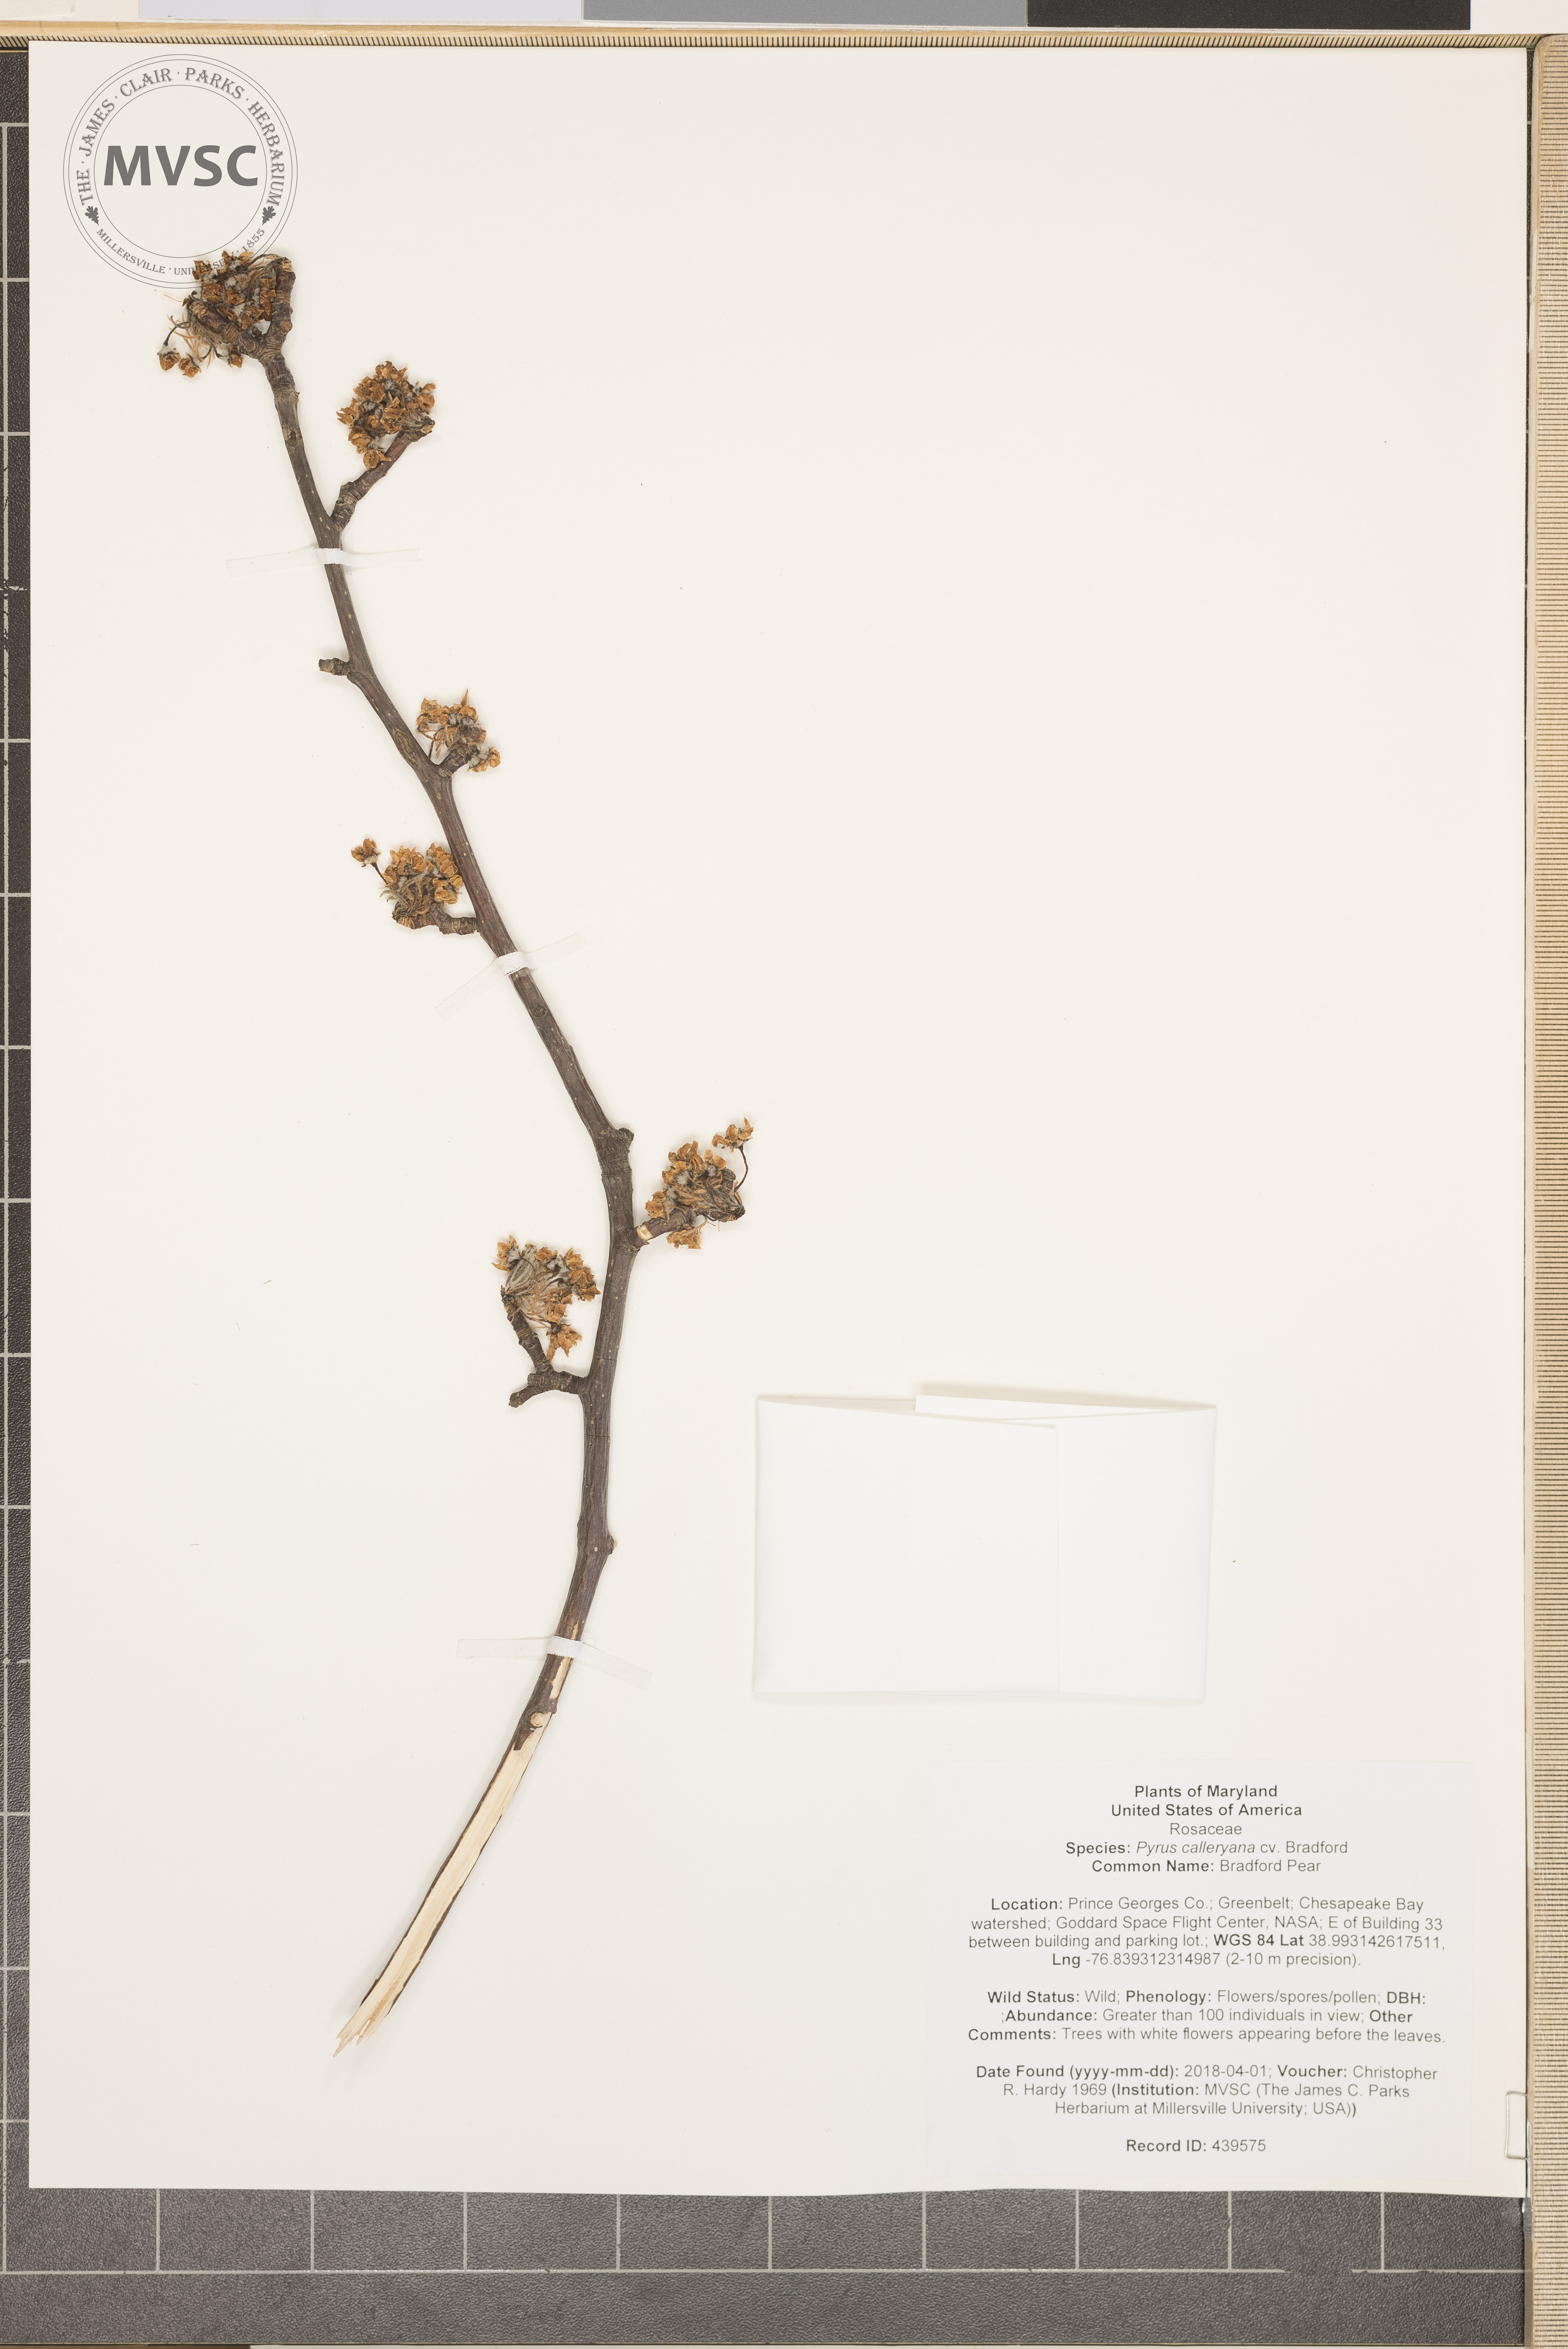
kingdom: Plantae
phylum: Tracheophyta
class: Magnoliopsida
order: Rosales
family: Rosaceae
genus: Pyrus
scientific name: Pyrus calleryana
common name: Bradford Pear
